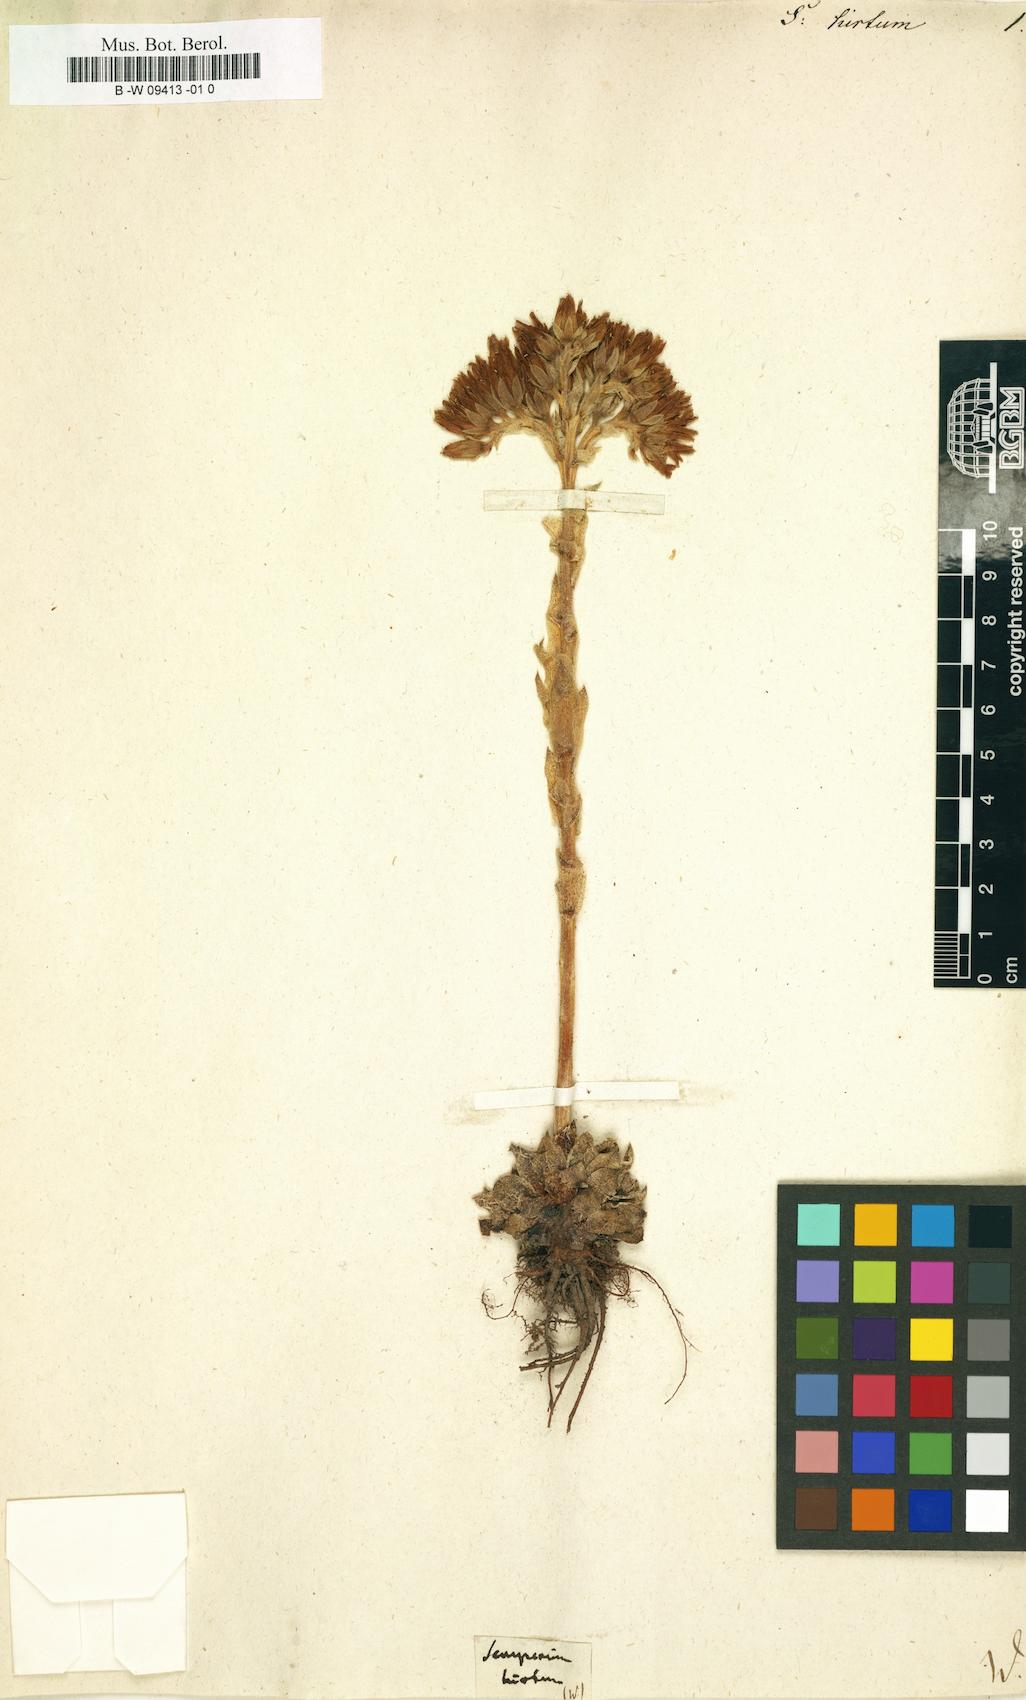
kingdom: Plantae
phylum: Tracheophyta
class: Magnoliopsida
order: Saxifragales
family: Crassulaceae
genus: Sempervivum
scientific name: Sempervivum
